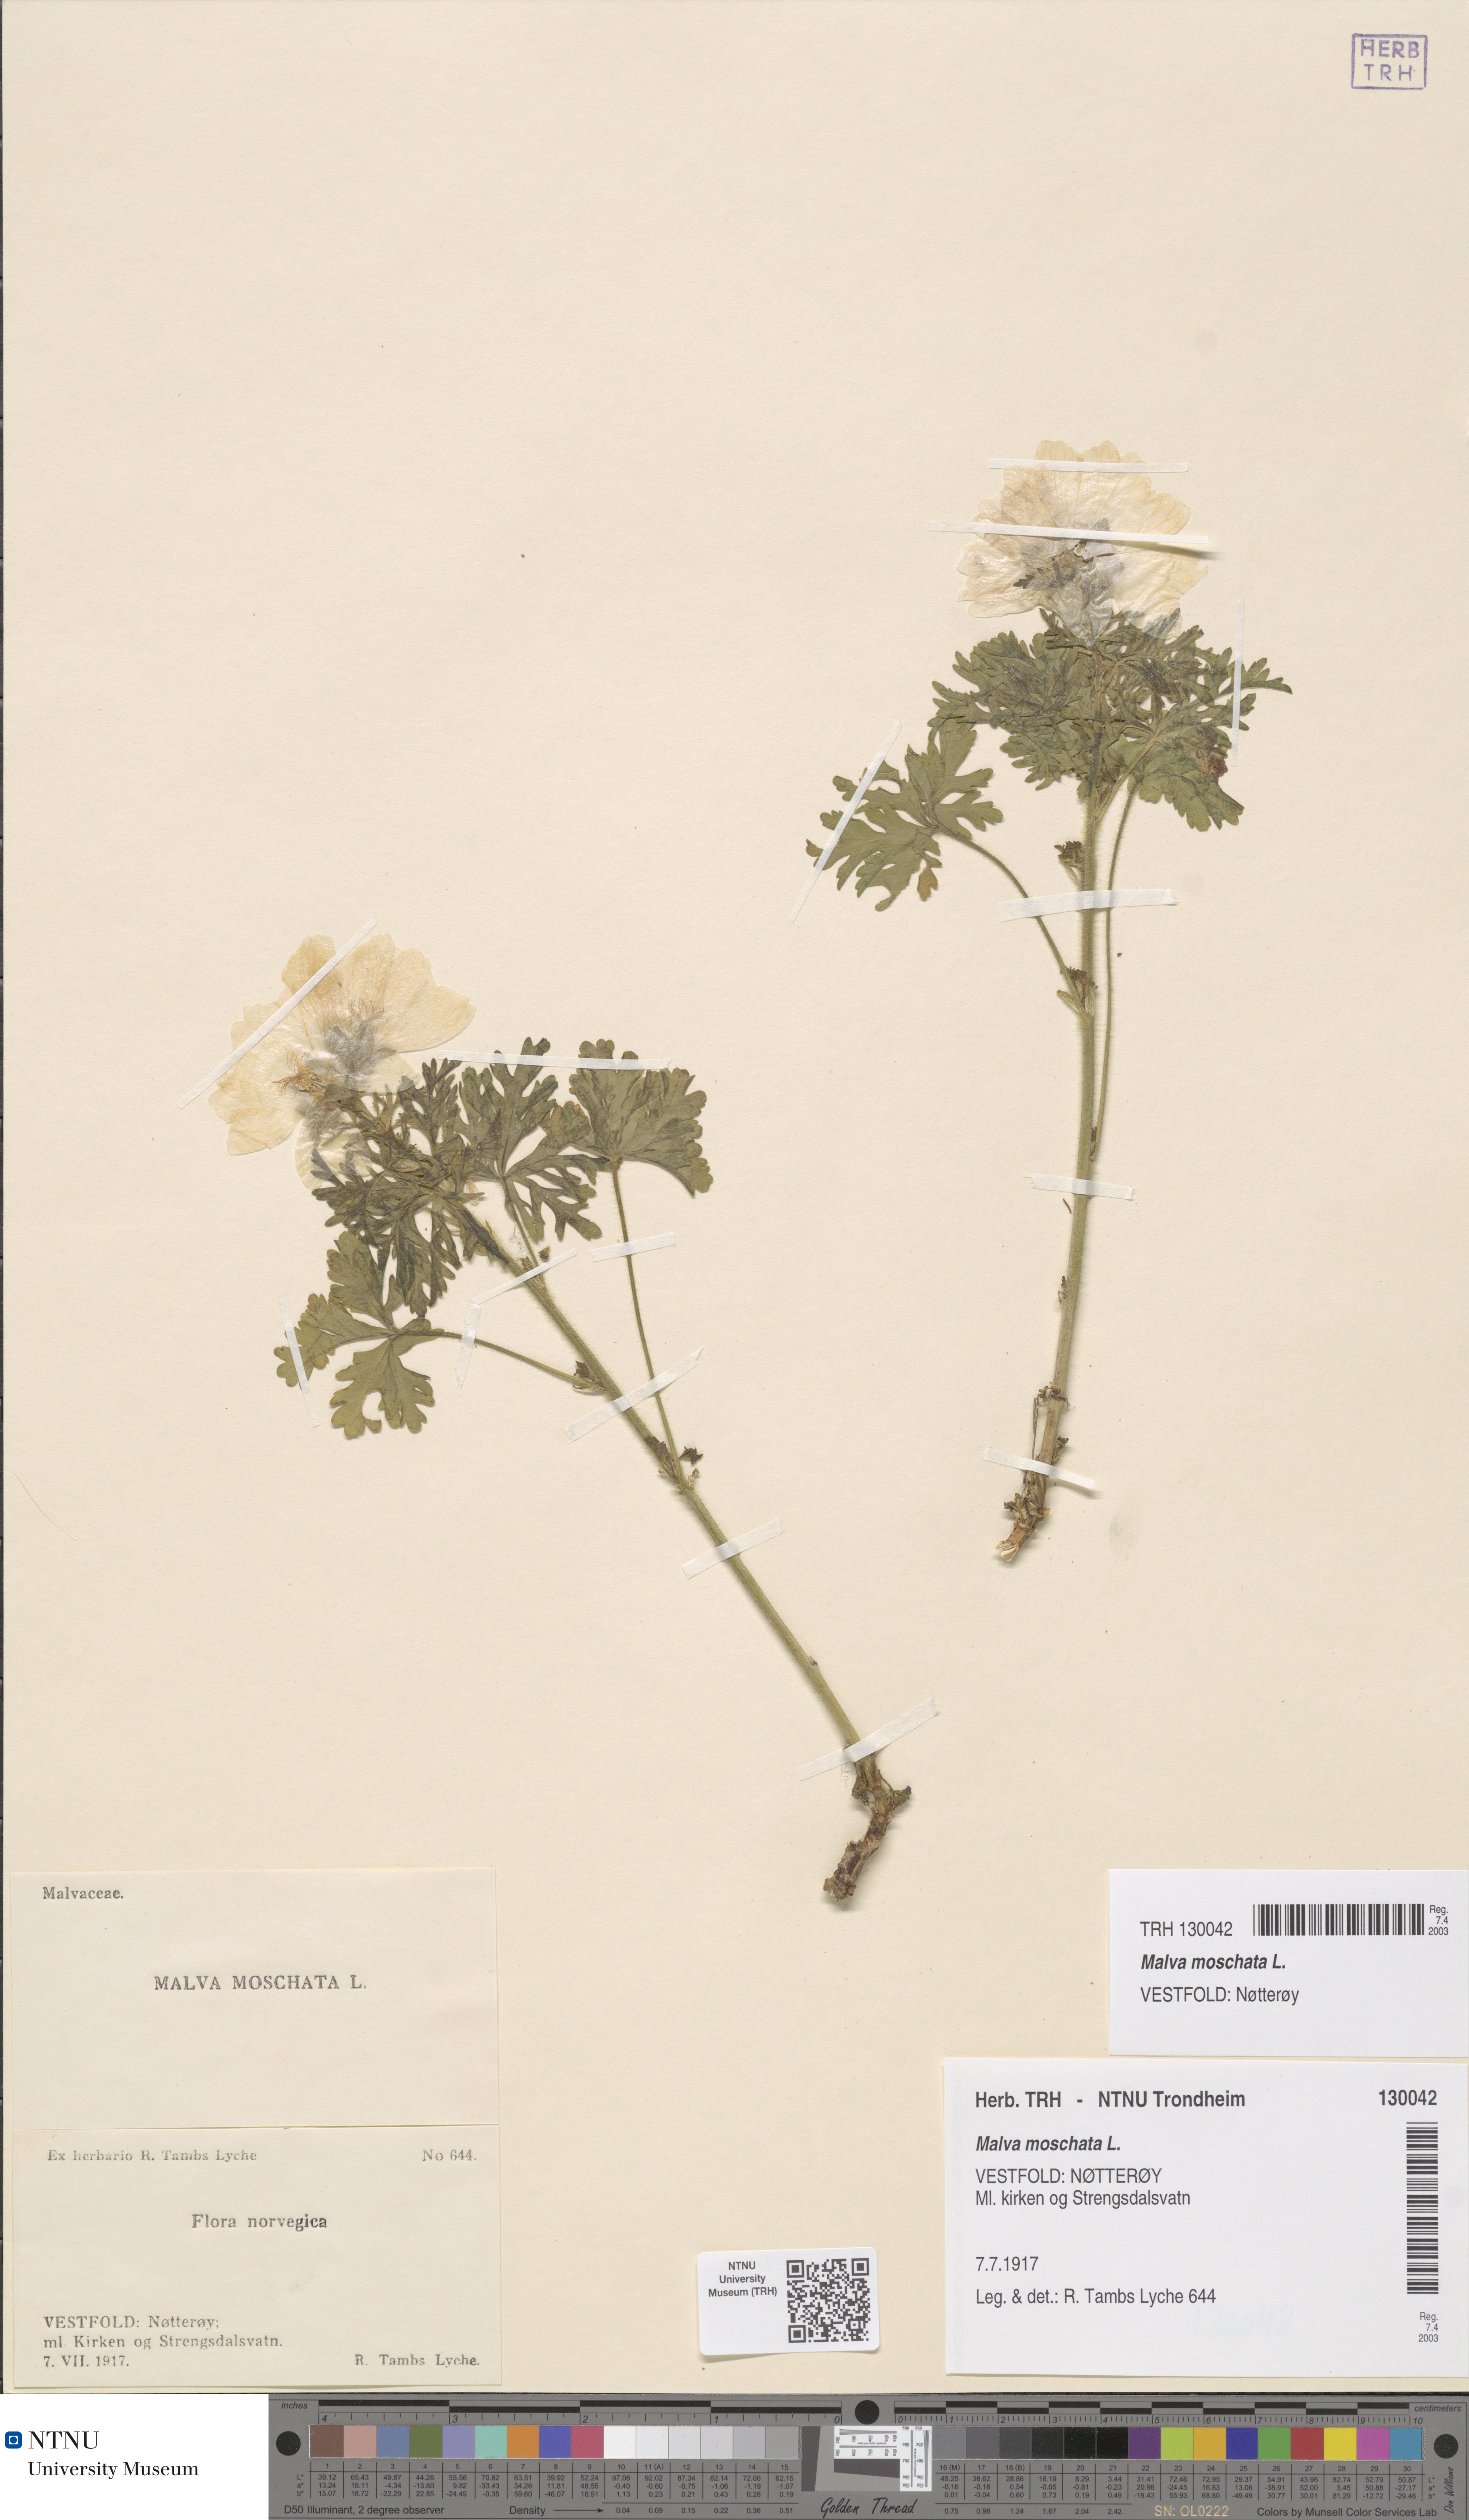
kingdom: Plantae
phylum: Tracheophyta
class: Magnoliopsida
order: Malvales
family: Malvaceae
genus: Malva
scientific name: Malva moschata
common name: Musk mallow
